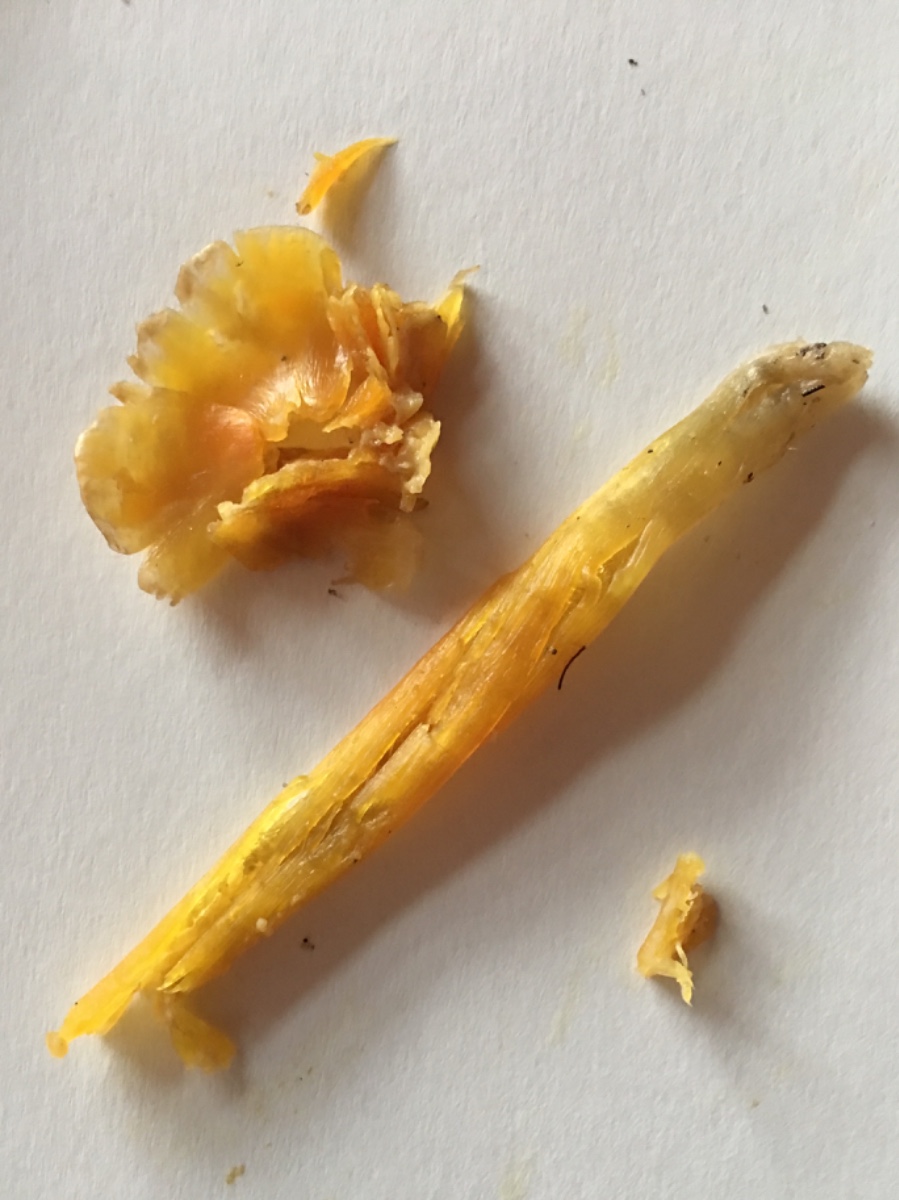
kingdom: Fungi
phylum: Basidiomycota
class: Agaricomycetes
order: Agaricales
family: Hygrophoraceae
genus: Hygrocybe
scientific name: Hygrocybe acutoconica
